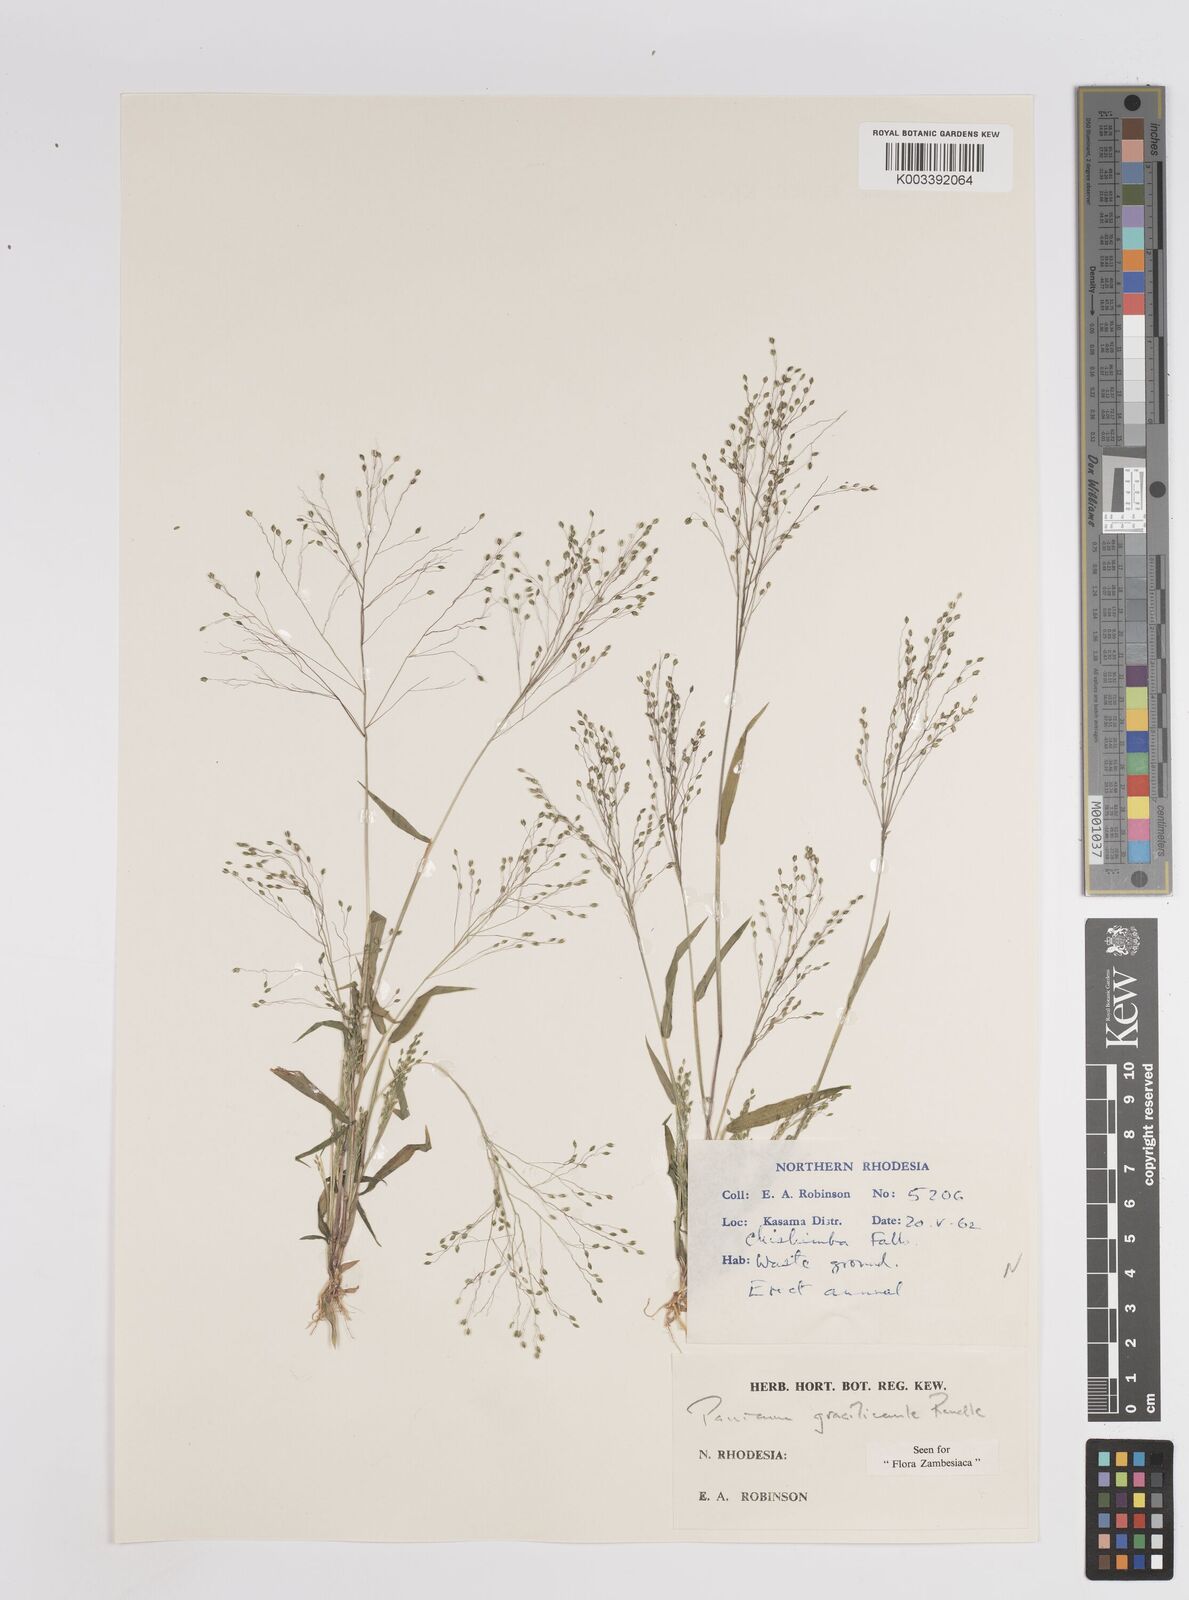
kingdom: Plantae
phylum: Tracheophyta
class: Liliopsida
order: Poales
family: Poaceae
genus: Trichanthecium
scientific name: Trichanthecium gracilicaule
